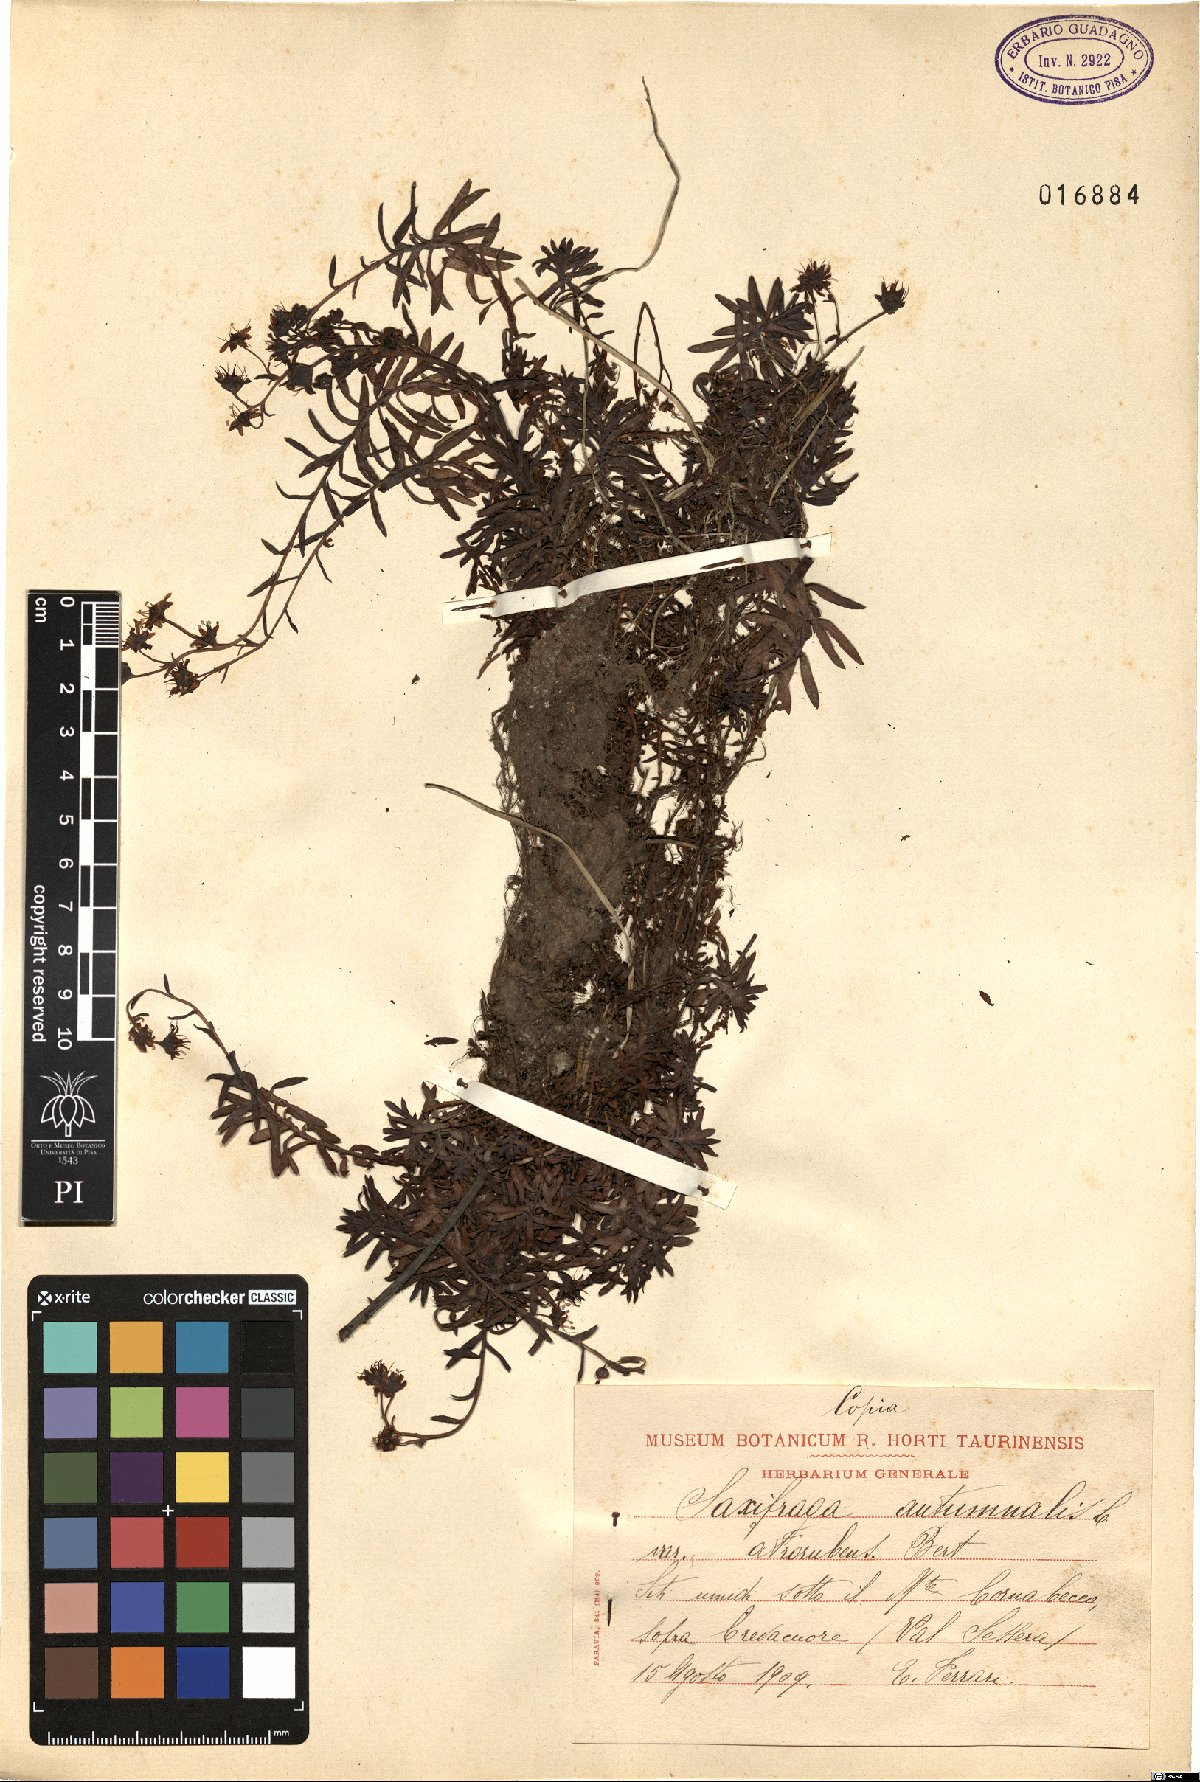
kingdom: Plantae
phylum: Tracheophyta
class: Magnoliopsida
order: Saxifragales
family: Saxifragaceae
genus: Saxifraga
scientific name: Saxifraga hirculus
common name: Yellow marsh saxifrage
